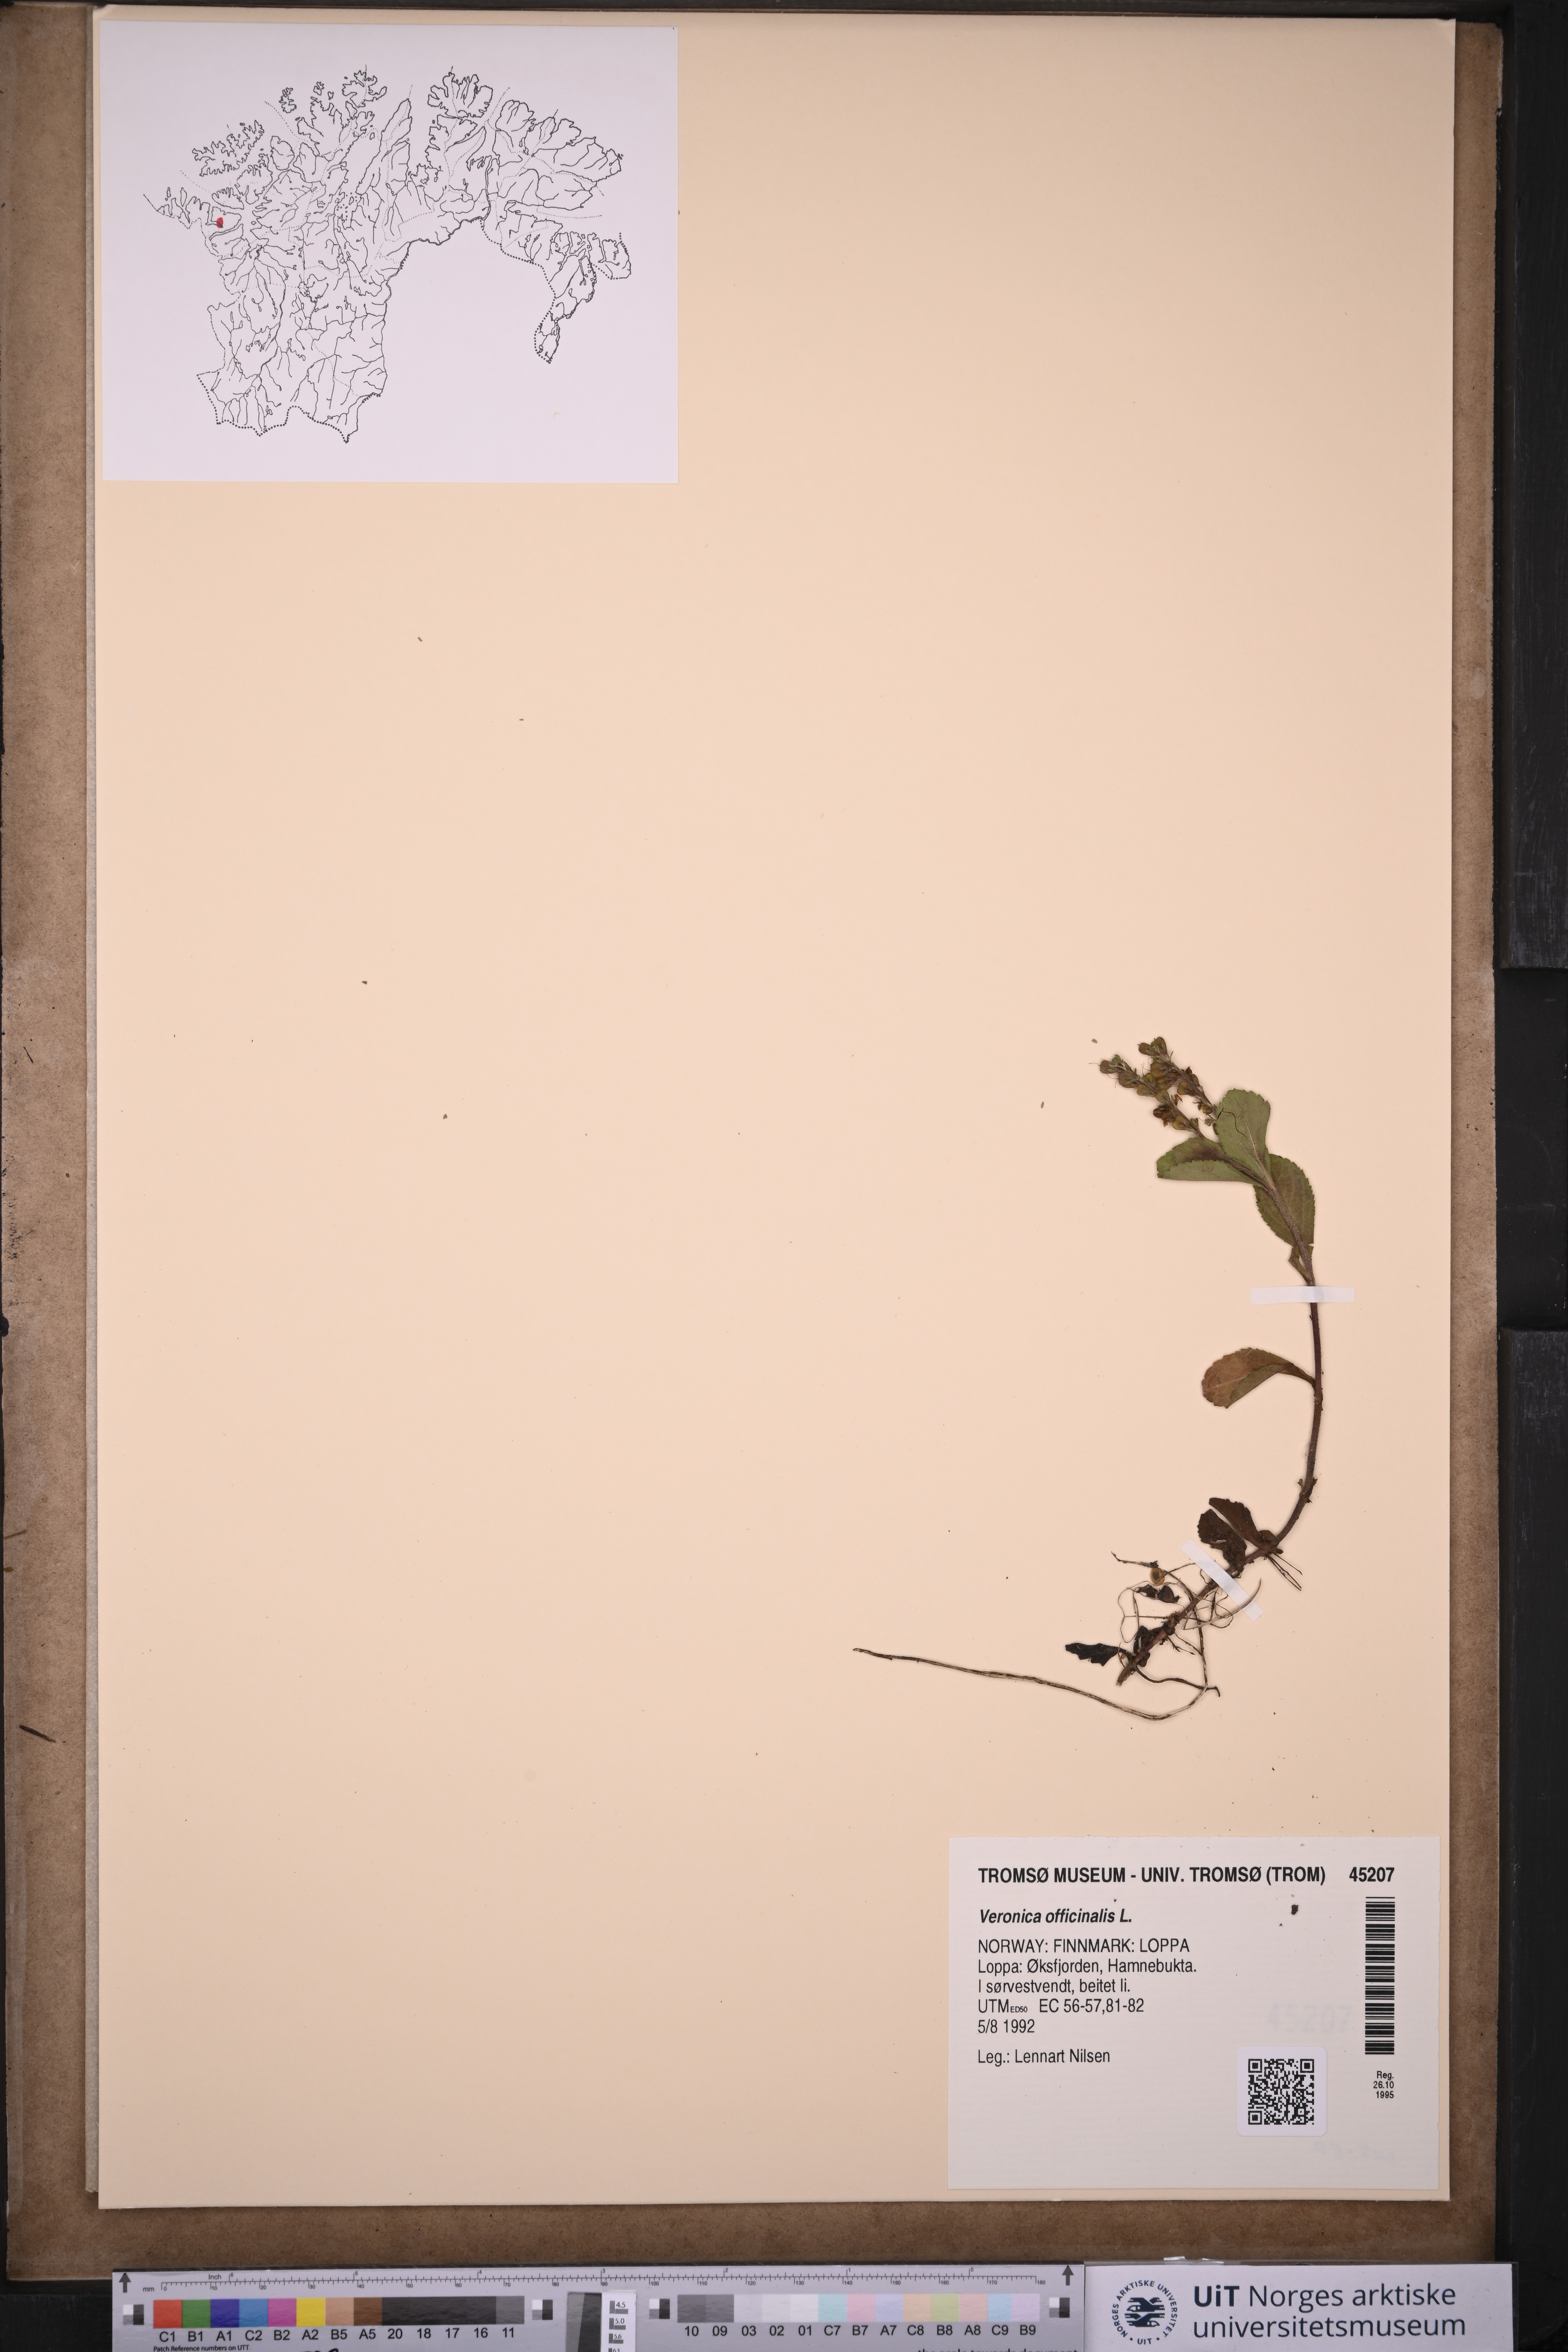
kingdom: Plantae
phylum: Tracheophyta
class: Magnoliopsida
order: Lamiales
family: Plantaginaceae
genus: Veronica
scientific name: Veronica officinalis
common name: Common speedwell
